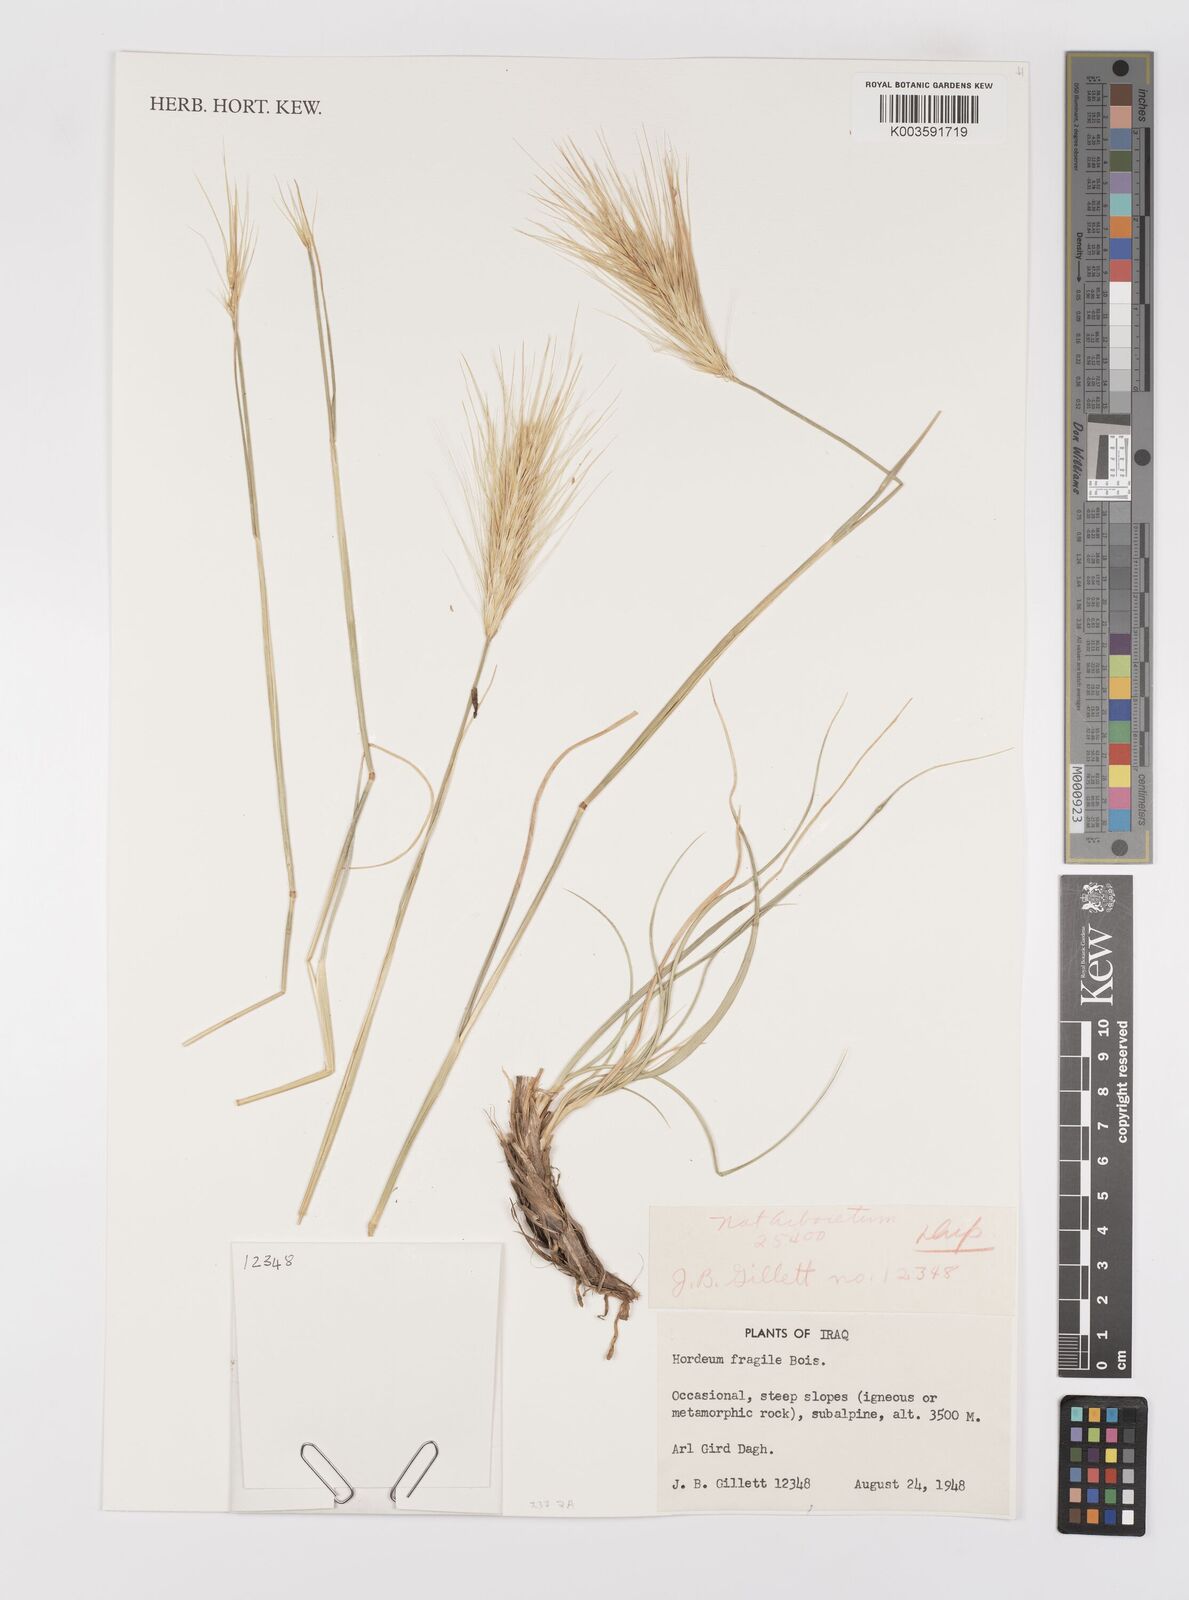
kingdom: Plantae
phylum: Tracheophyta
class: Liliopsida
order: Poales
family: Poaceae
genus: Psathyrostachys
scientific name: Psathyrostachys fragilis
